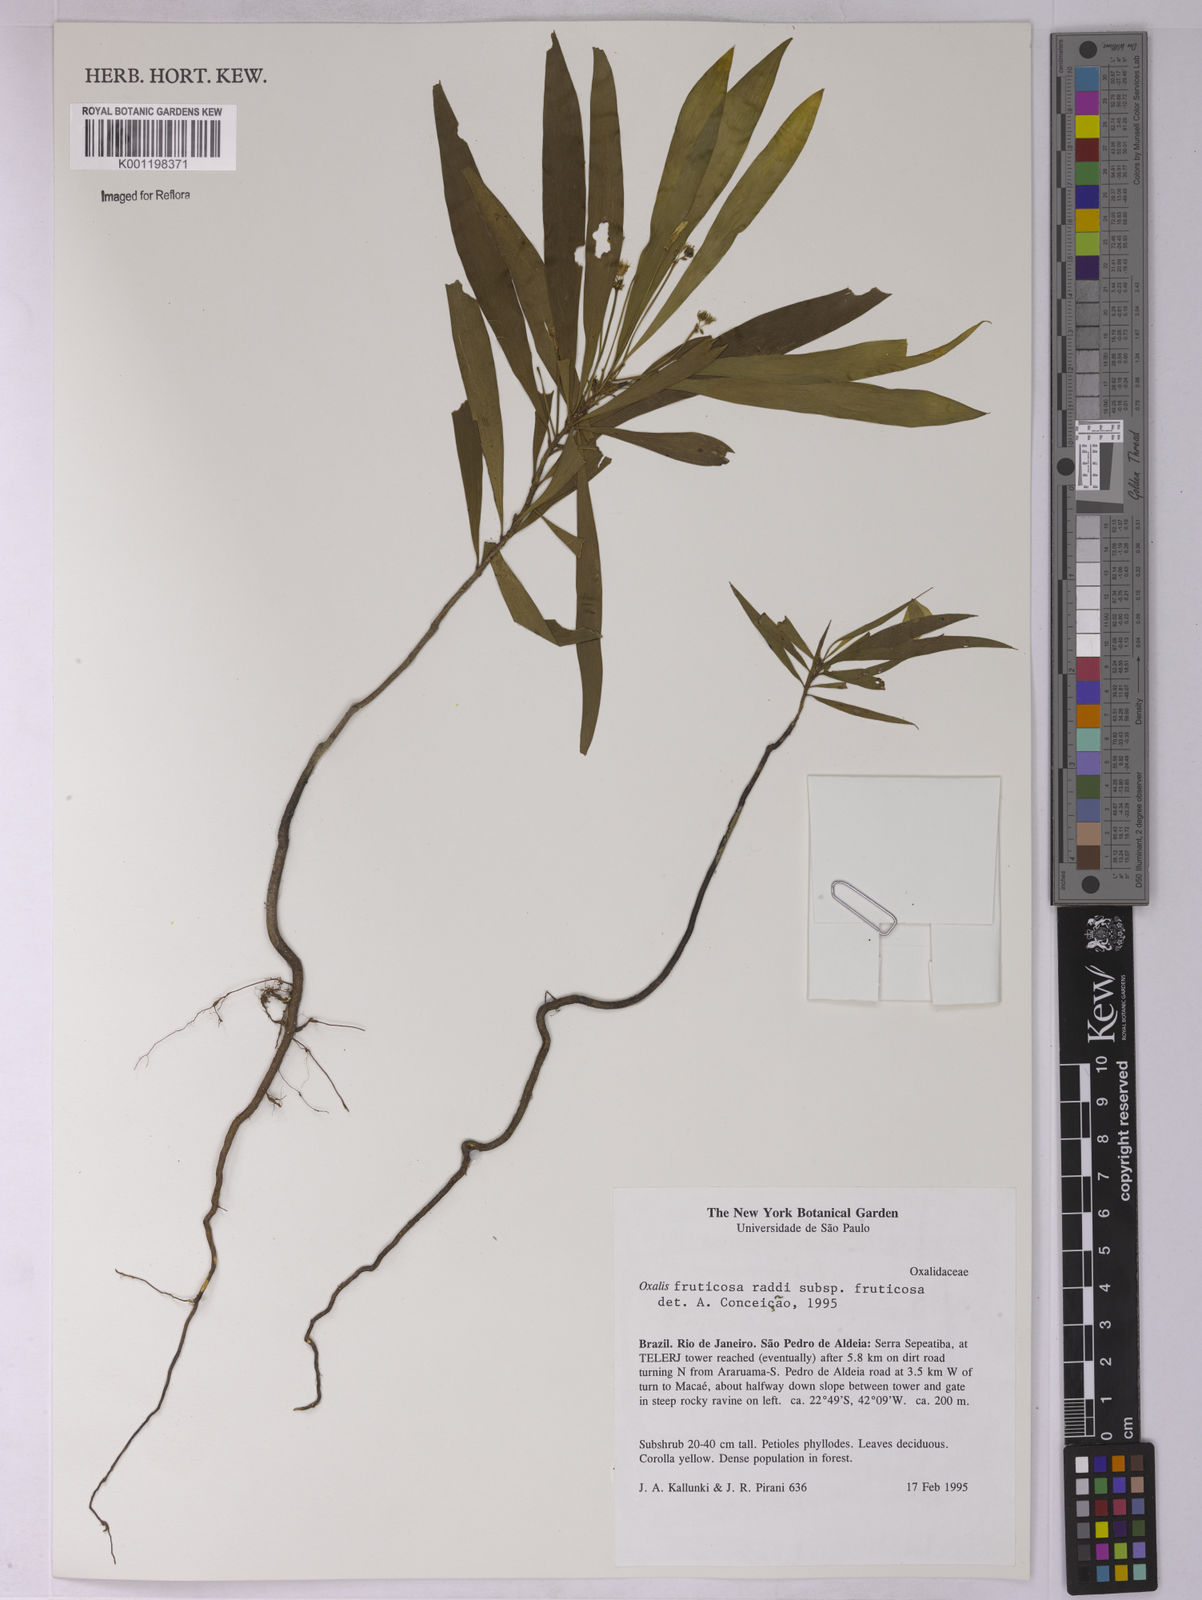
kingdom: Plantae
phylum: Tracheophyta
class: Magnoliopsida
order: Oxalidales
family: Oxalidaceae
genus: Oxalis
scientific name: Oxalis fruticosa
